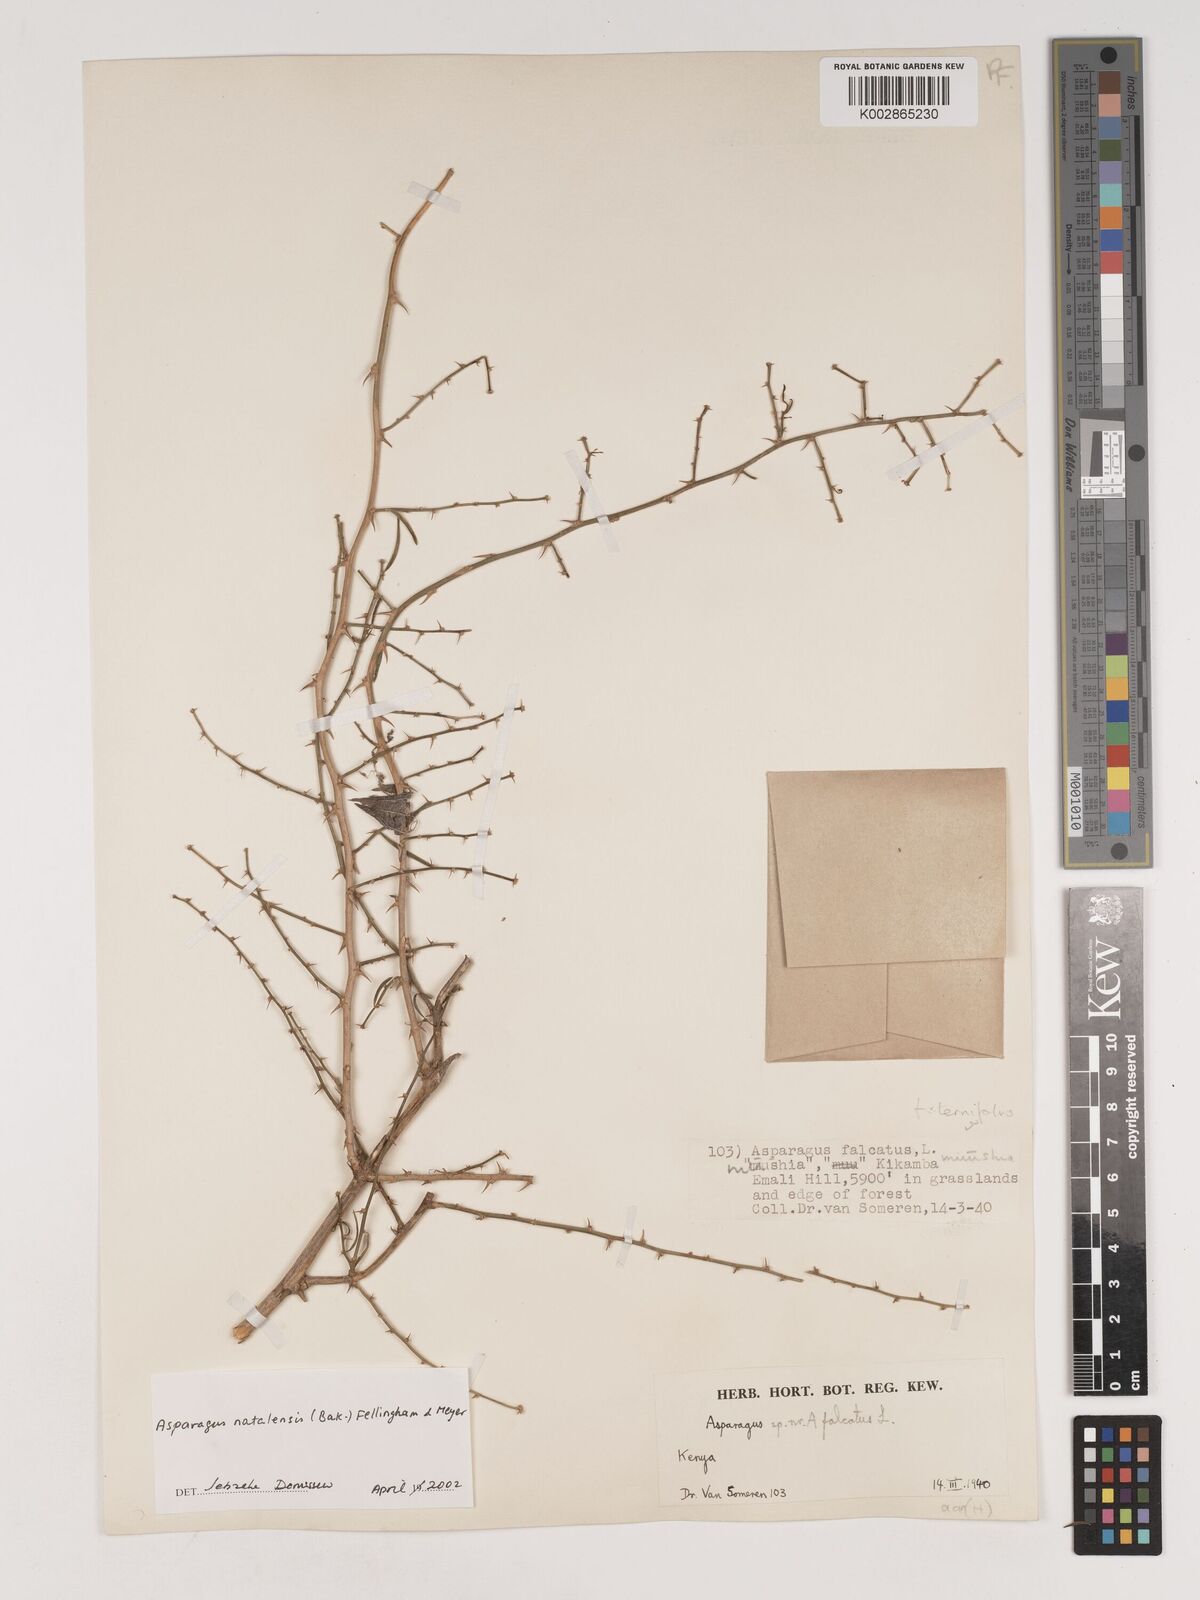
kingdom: Plantae
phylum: Tracheophyta
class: Liliopsida
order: Asparagales
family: Asparagaceae
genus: Asparagus
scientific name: Asparagus natalensis
